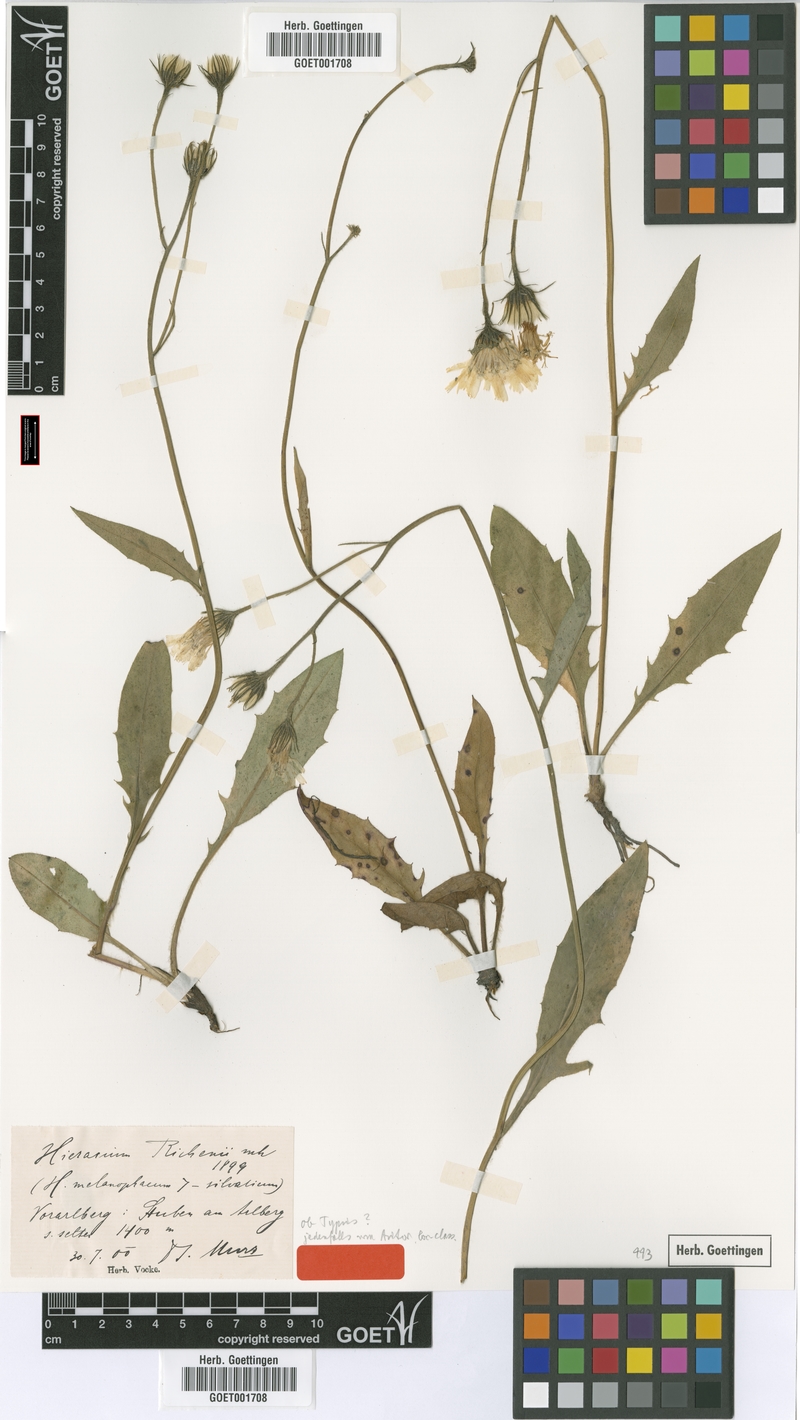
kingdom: Plantae
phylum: Tracheophyta
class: Magnoliopsida
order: Asterales
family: Asteraceae
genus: Hieracium
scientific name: Hieracium richenii
